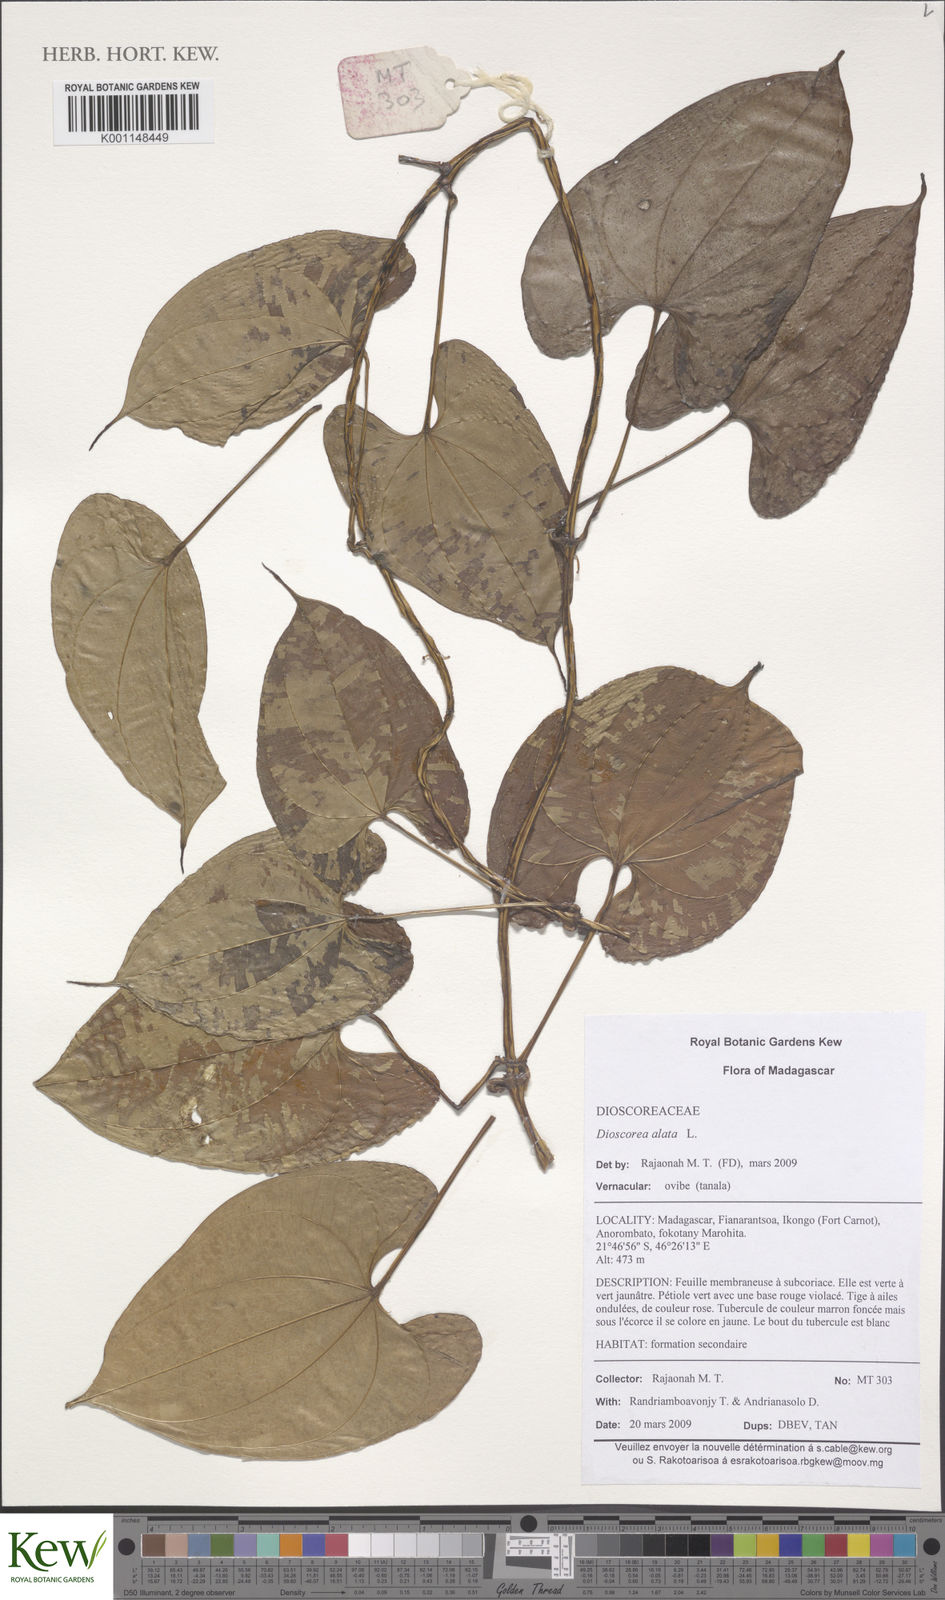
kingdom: Plantae
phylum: Tracheophyta
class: Liliopsida
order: Dioscoreales
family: Dioscoreaceae
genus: Dioscorea
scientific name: Dioscorea alata
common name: Water yam
